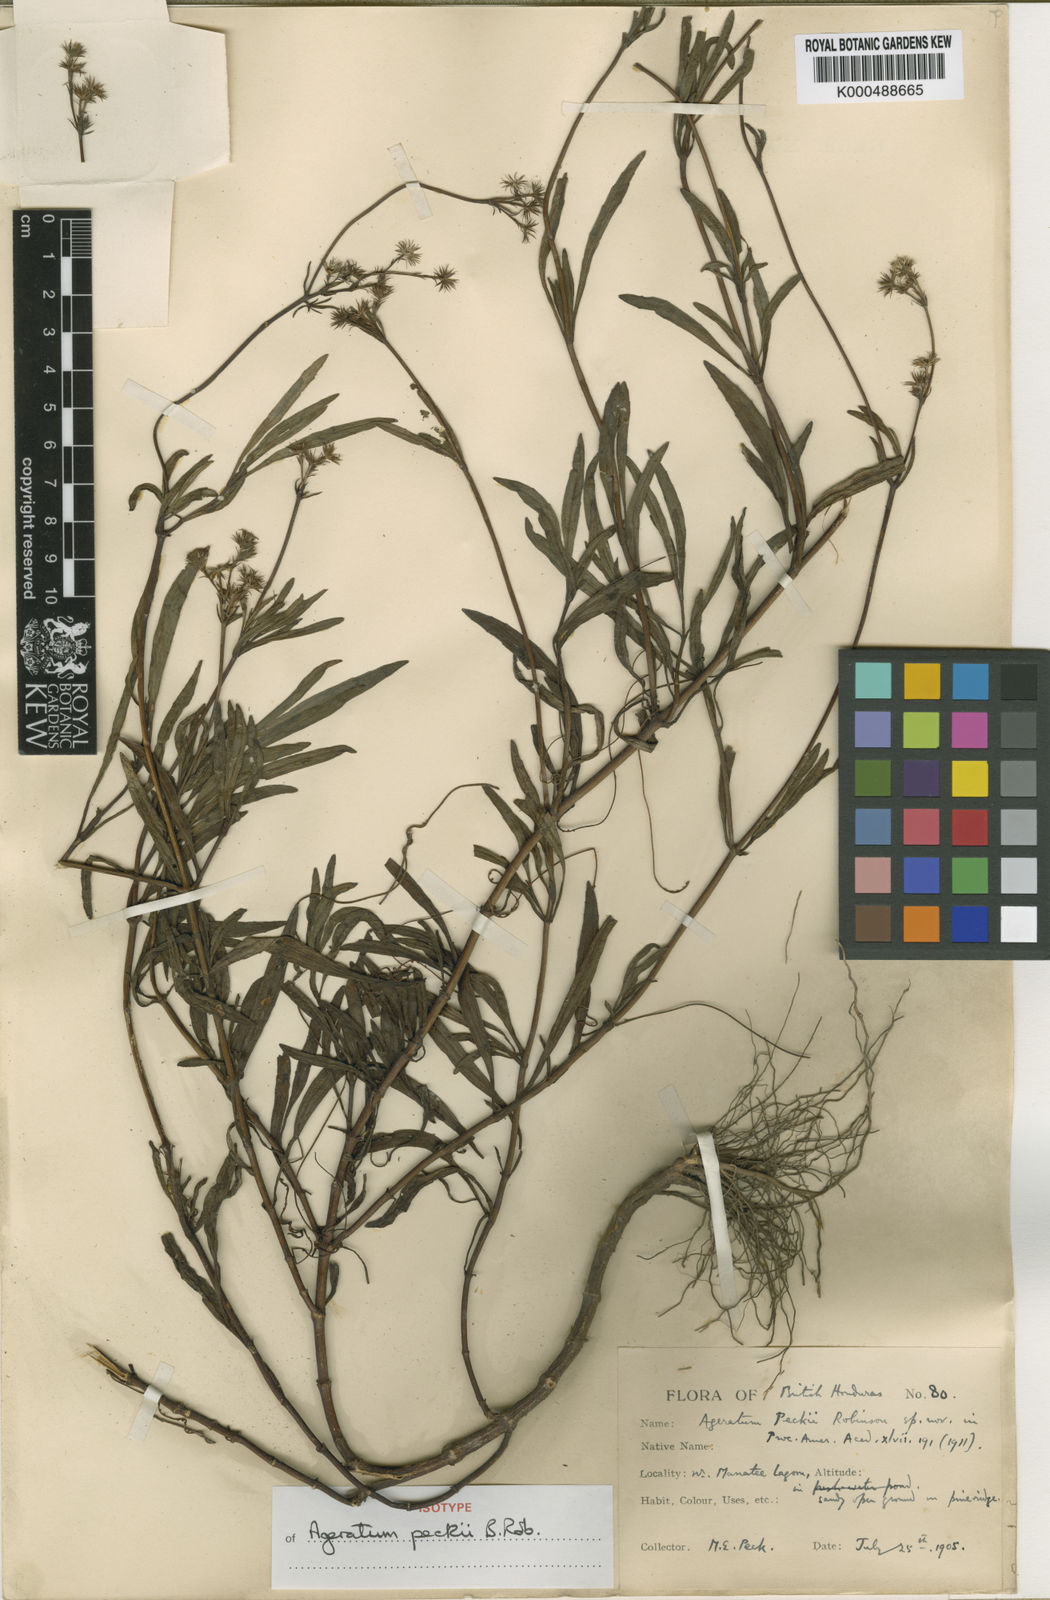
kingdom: Plantae
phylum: Tracheophyta
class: Magnoliopsida
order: Asterales
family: Asteraceae
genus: Ageratum
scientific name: Ageratum peckii
